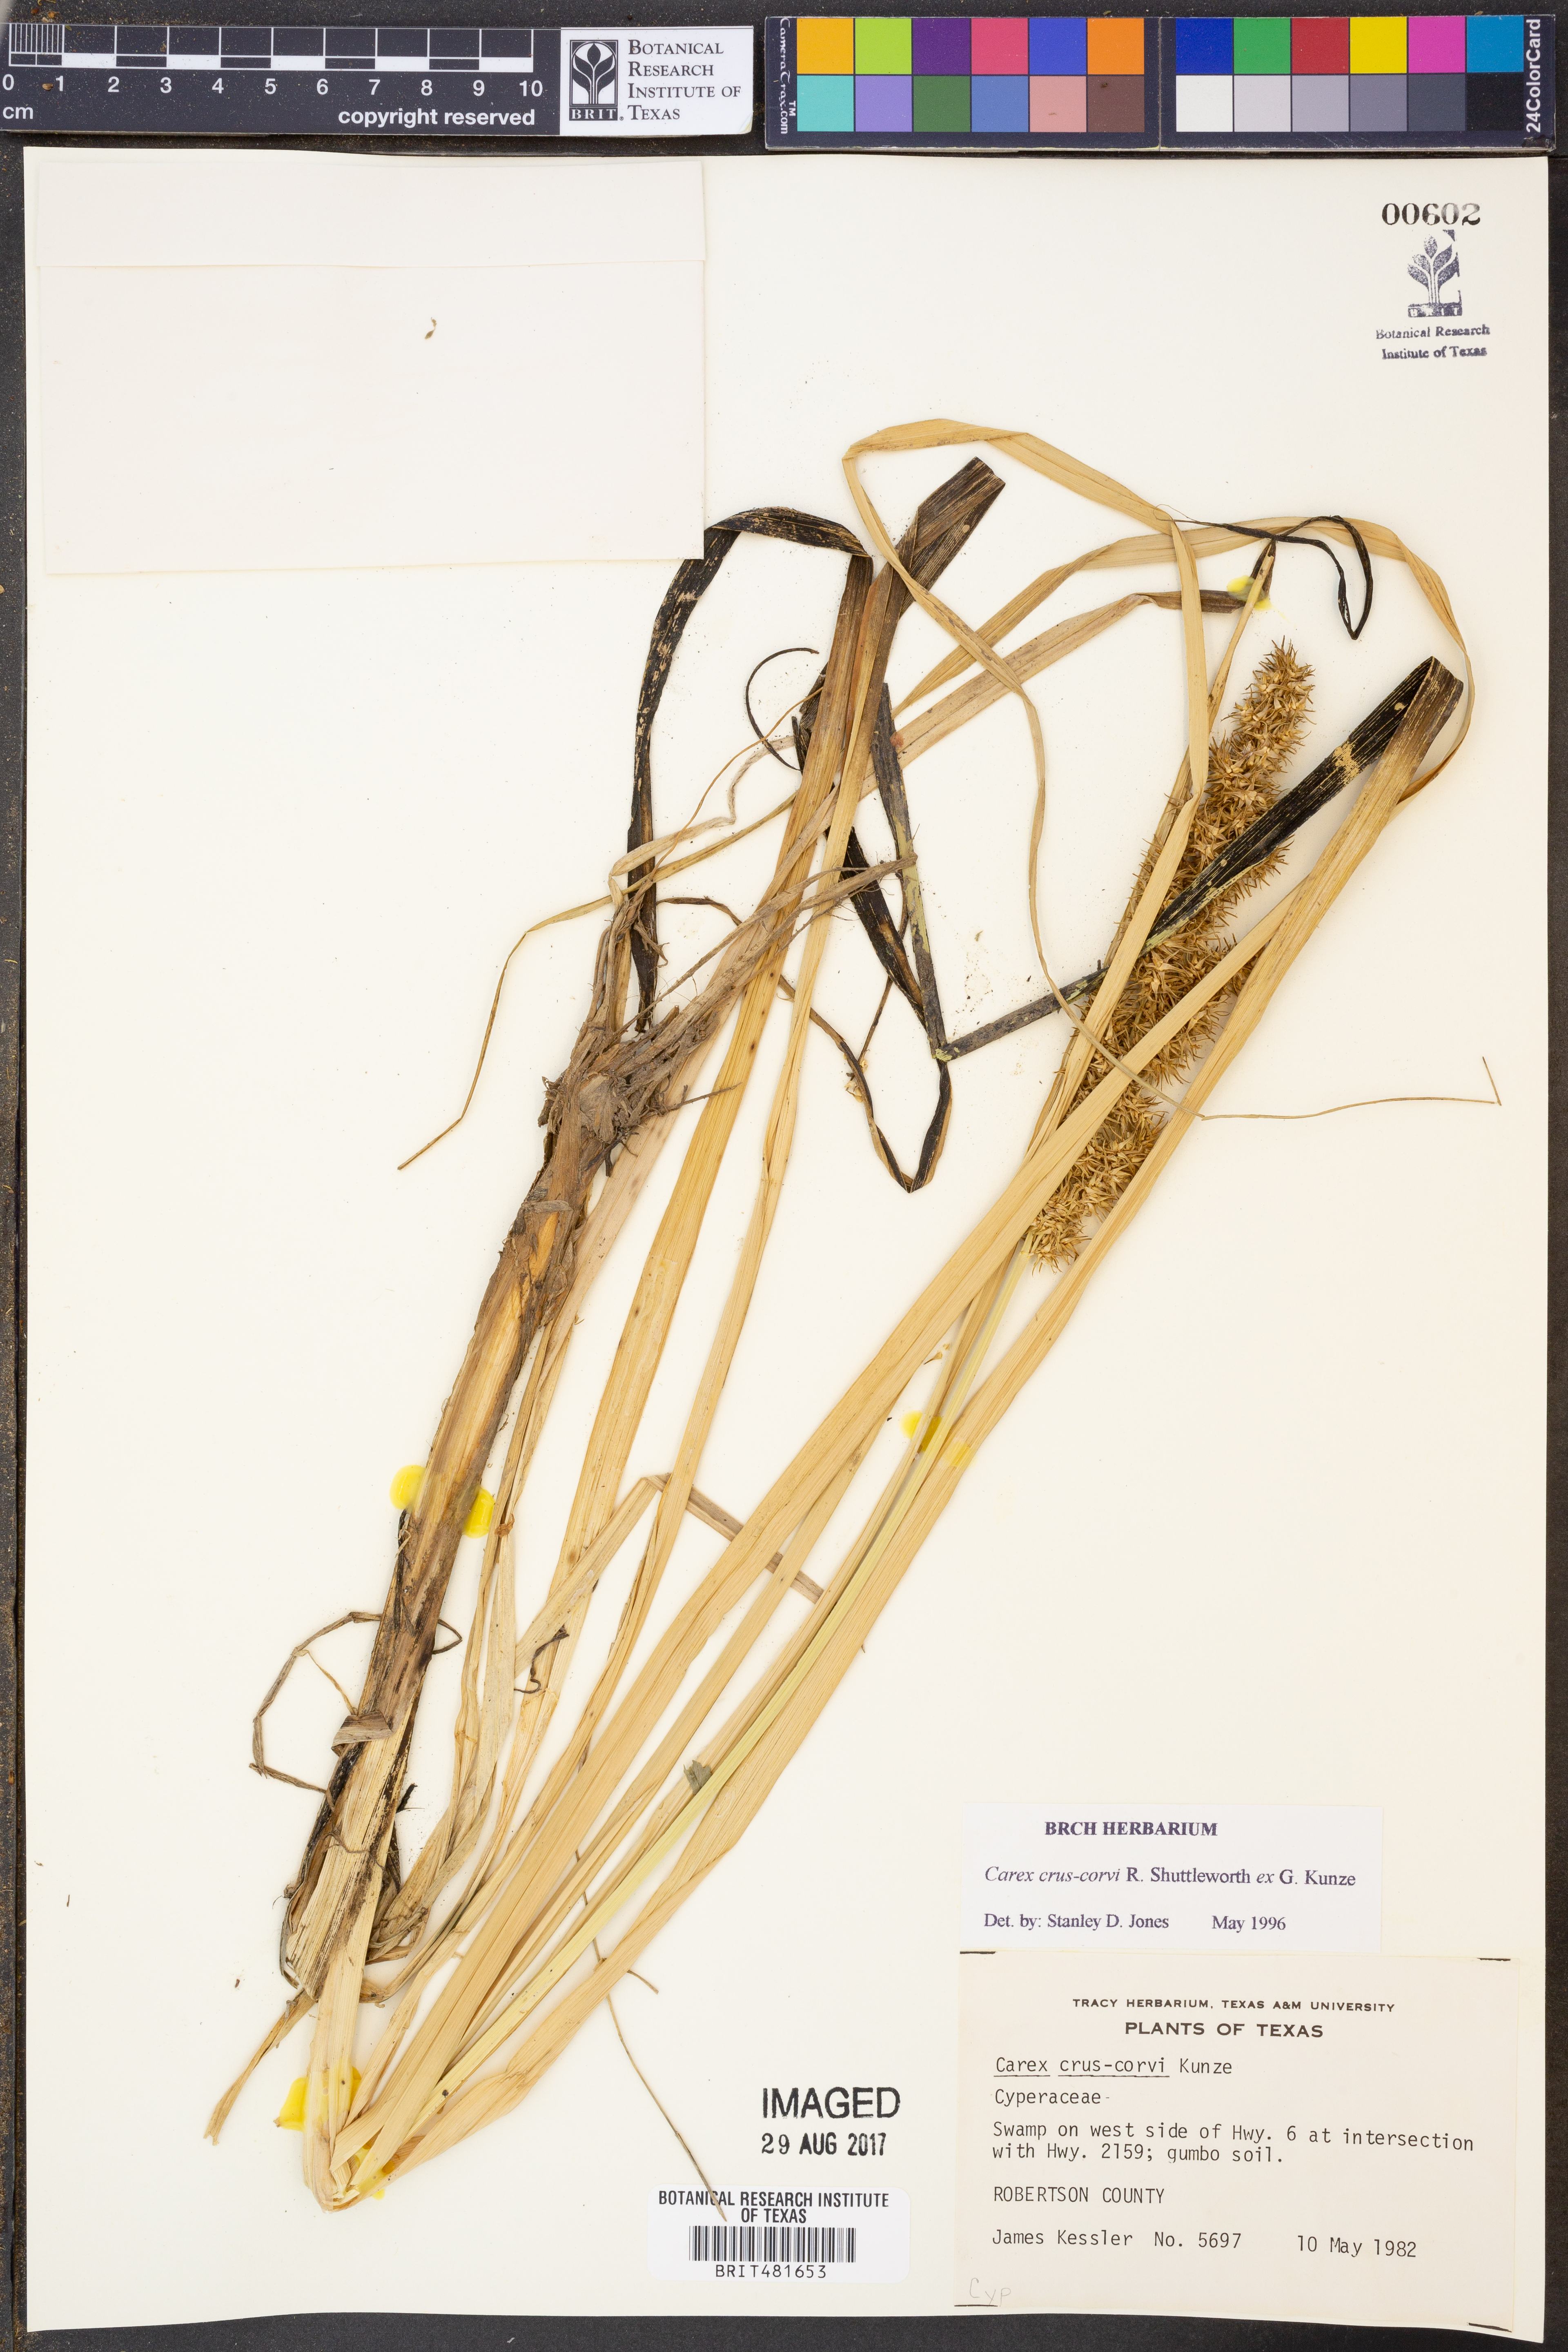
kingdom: Plantae
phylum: Tracheophyta
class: Liliopsida
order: Poales
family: Cyperaceae
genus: Carex
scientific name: Carex crus-corvi
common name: Crow-spur sedge
